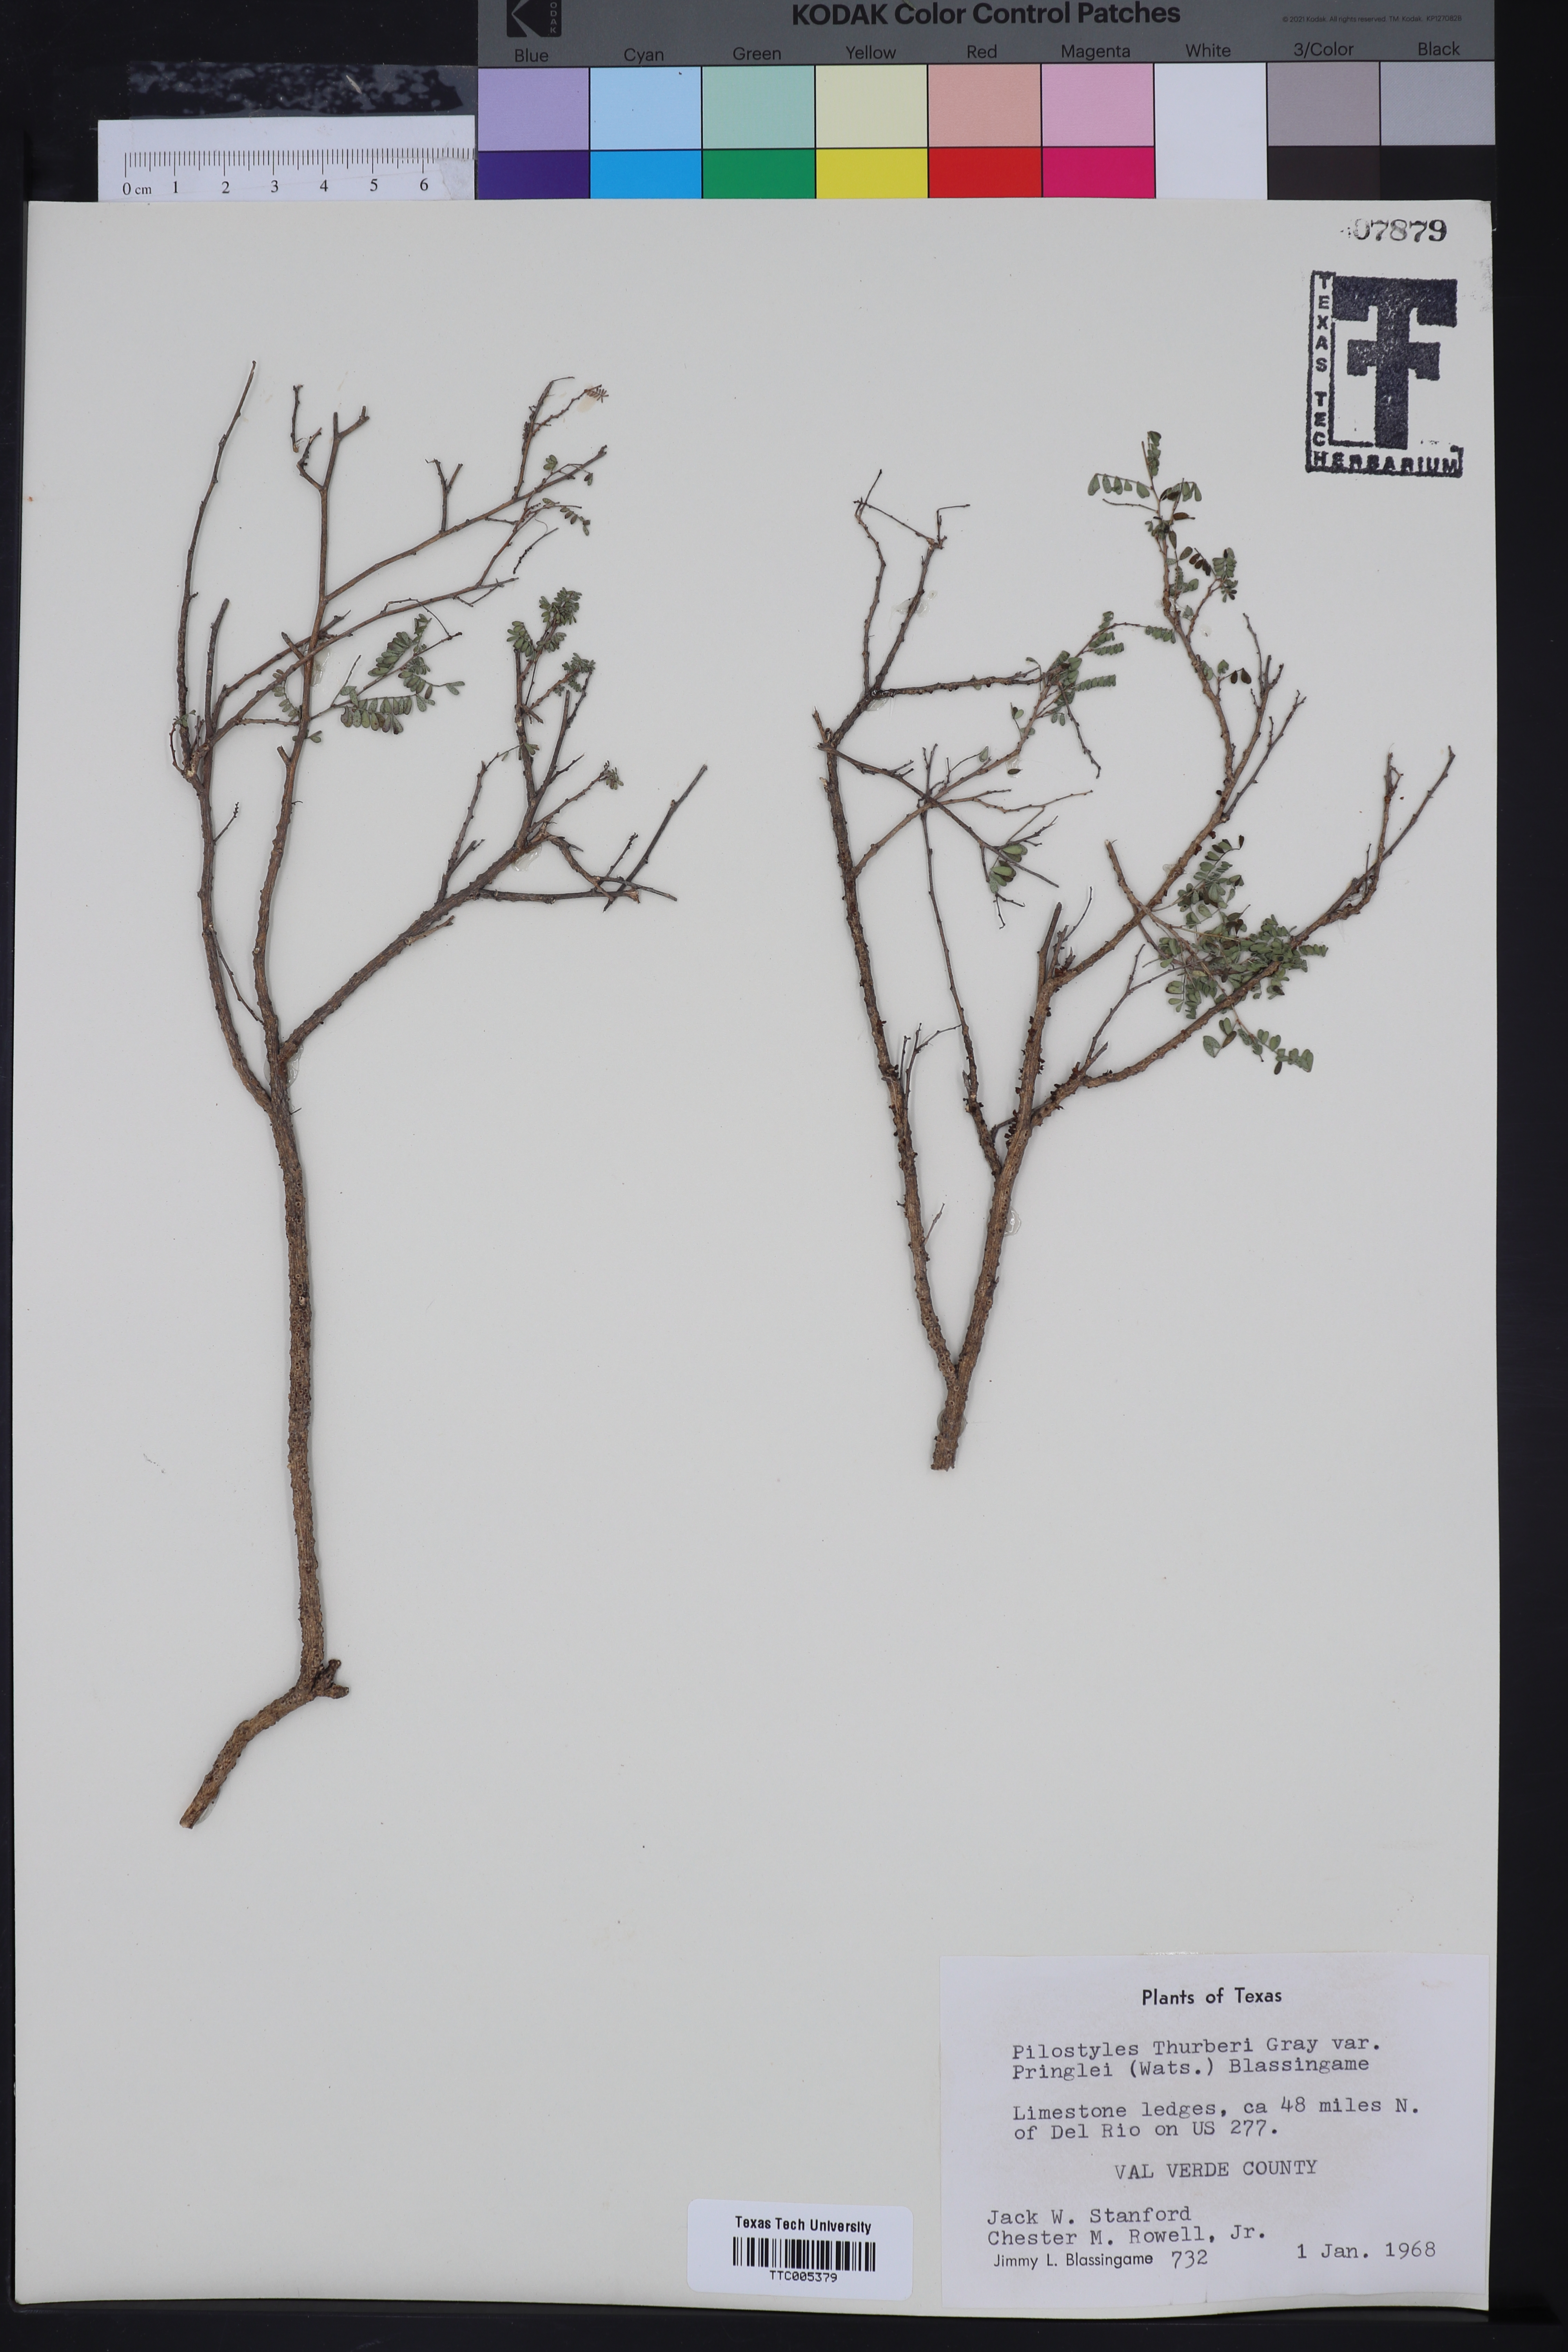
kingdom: Plantae
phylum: Tracheophyta
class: Magnoliopsida
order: Cucurbitales
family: Apodanthaceae
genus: Pilostyles
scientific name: Pilostyles thurberi
